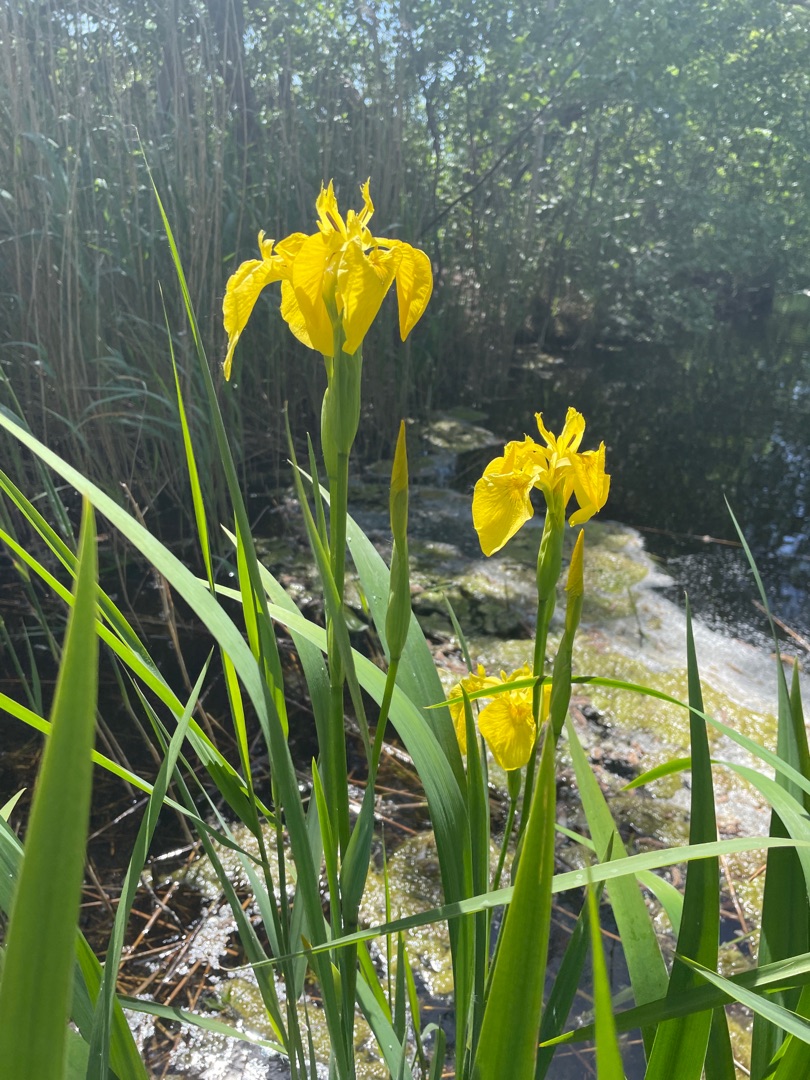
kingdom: Plantae
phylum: Tracheophyta
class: Liliopsida
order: Asparagales
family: Iridaceae
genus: Iris
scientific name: Iris pseudacorus
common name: Gul iris
